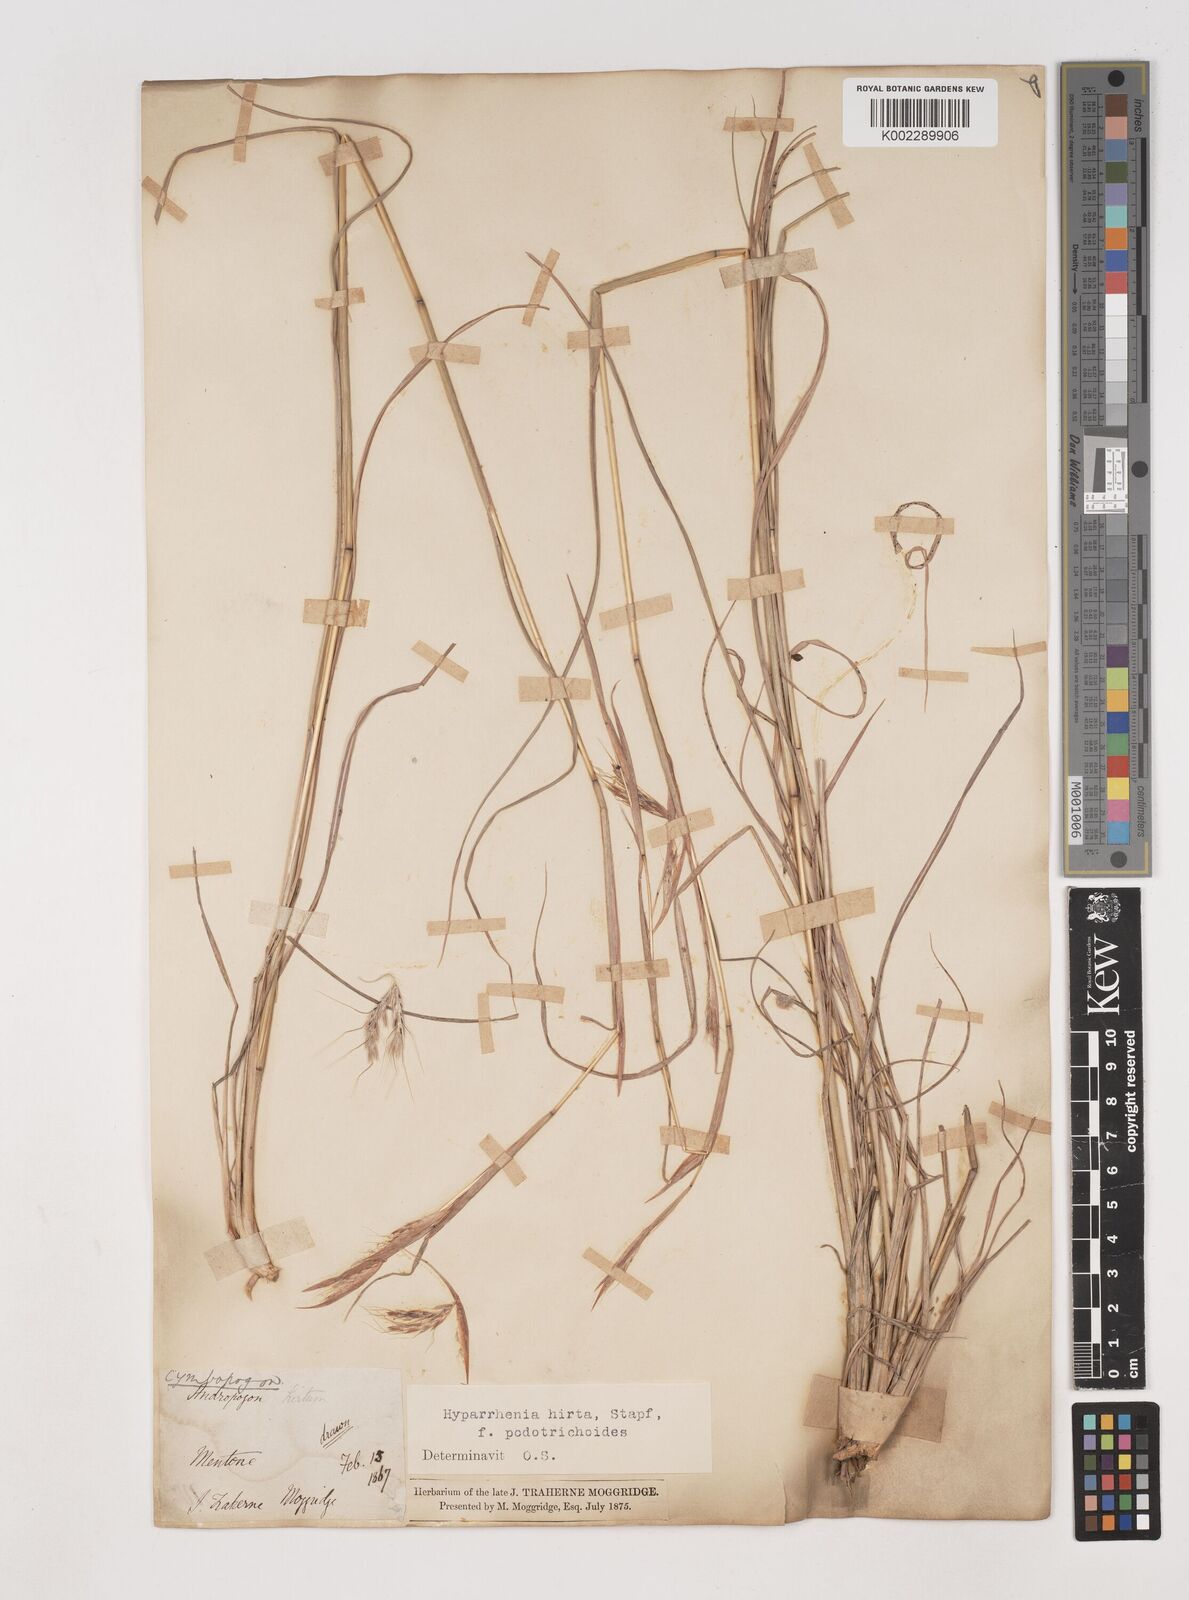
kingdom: Plantae
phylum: Tracheophyta
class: Liliopsida
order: Poales
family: Poaceae
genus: Hyparrhenia
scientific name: Hyparrhenia hirta
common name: Thatching grass
